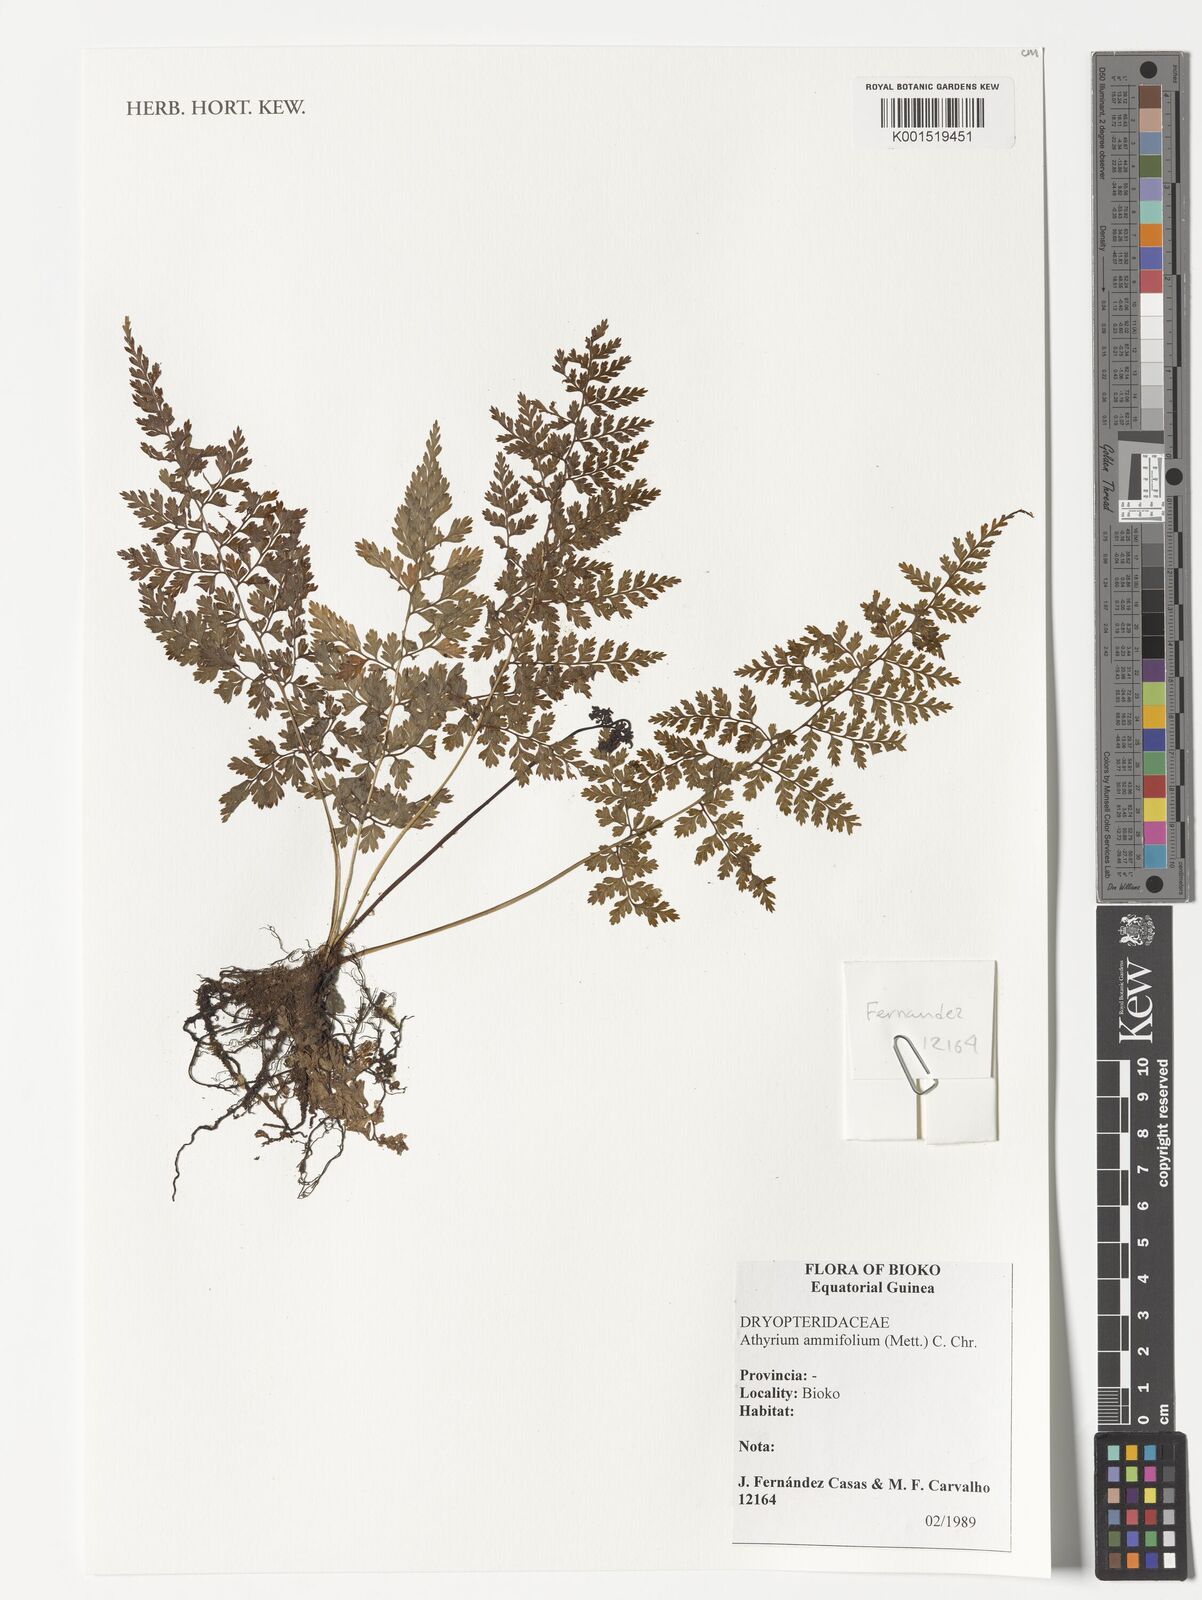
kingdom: Plantae
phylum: Tracheophyta
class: Polypodiopsida
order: Polypodiales
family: Athyriaceae
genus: Athyrium
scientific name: Athyrium ammifolium
